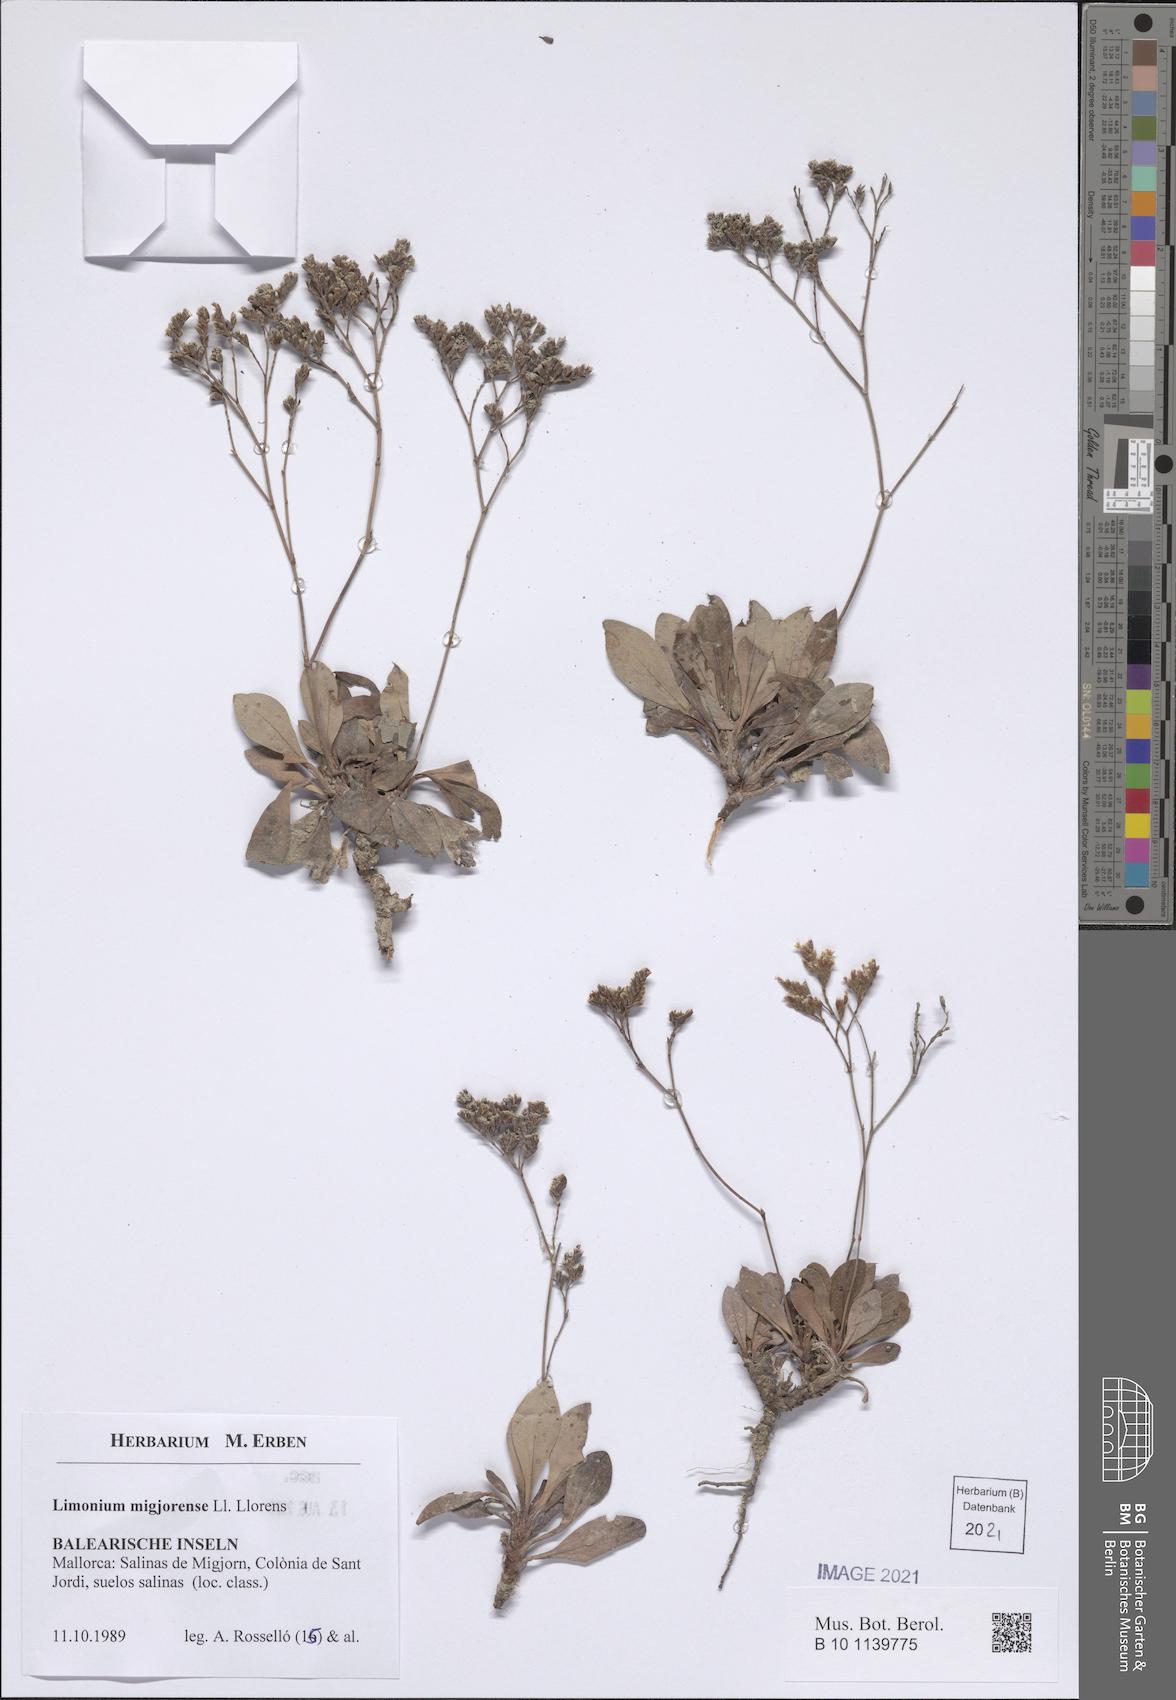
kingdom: Plantae
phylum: Tracheophyta
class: Magnoliopsida
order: Caryophyllales
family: Plumbaginaceae
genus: Limonium
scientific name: Limonium migjornense
